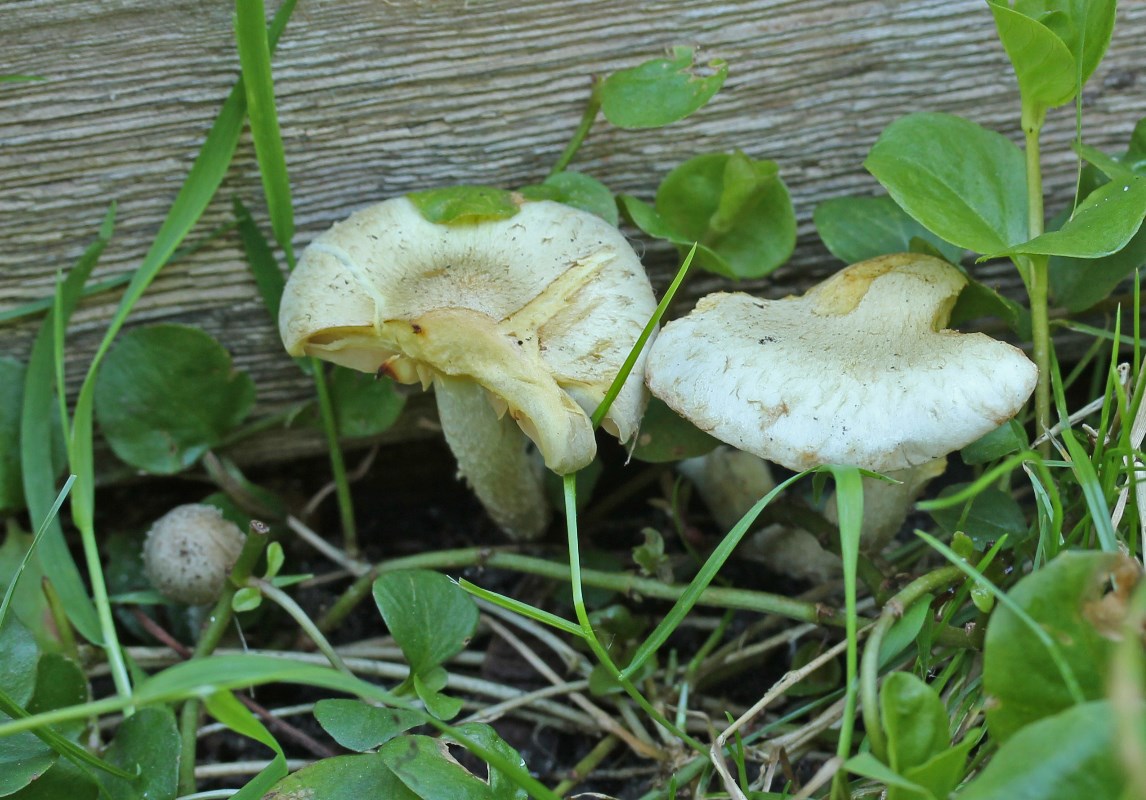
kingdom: Fungi
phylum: Basidiomycota
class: Agaricomycetes
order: Agaricales
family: Strophariaceae
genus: Pholiota
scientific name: Pholiota gummosa
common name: grøngul skælhat
